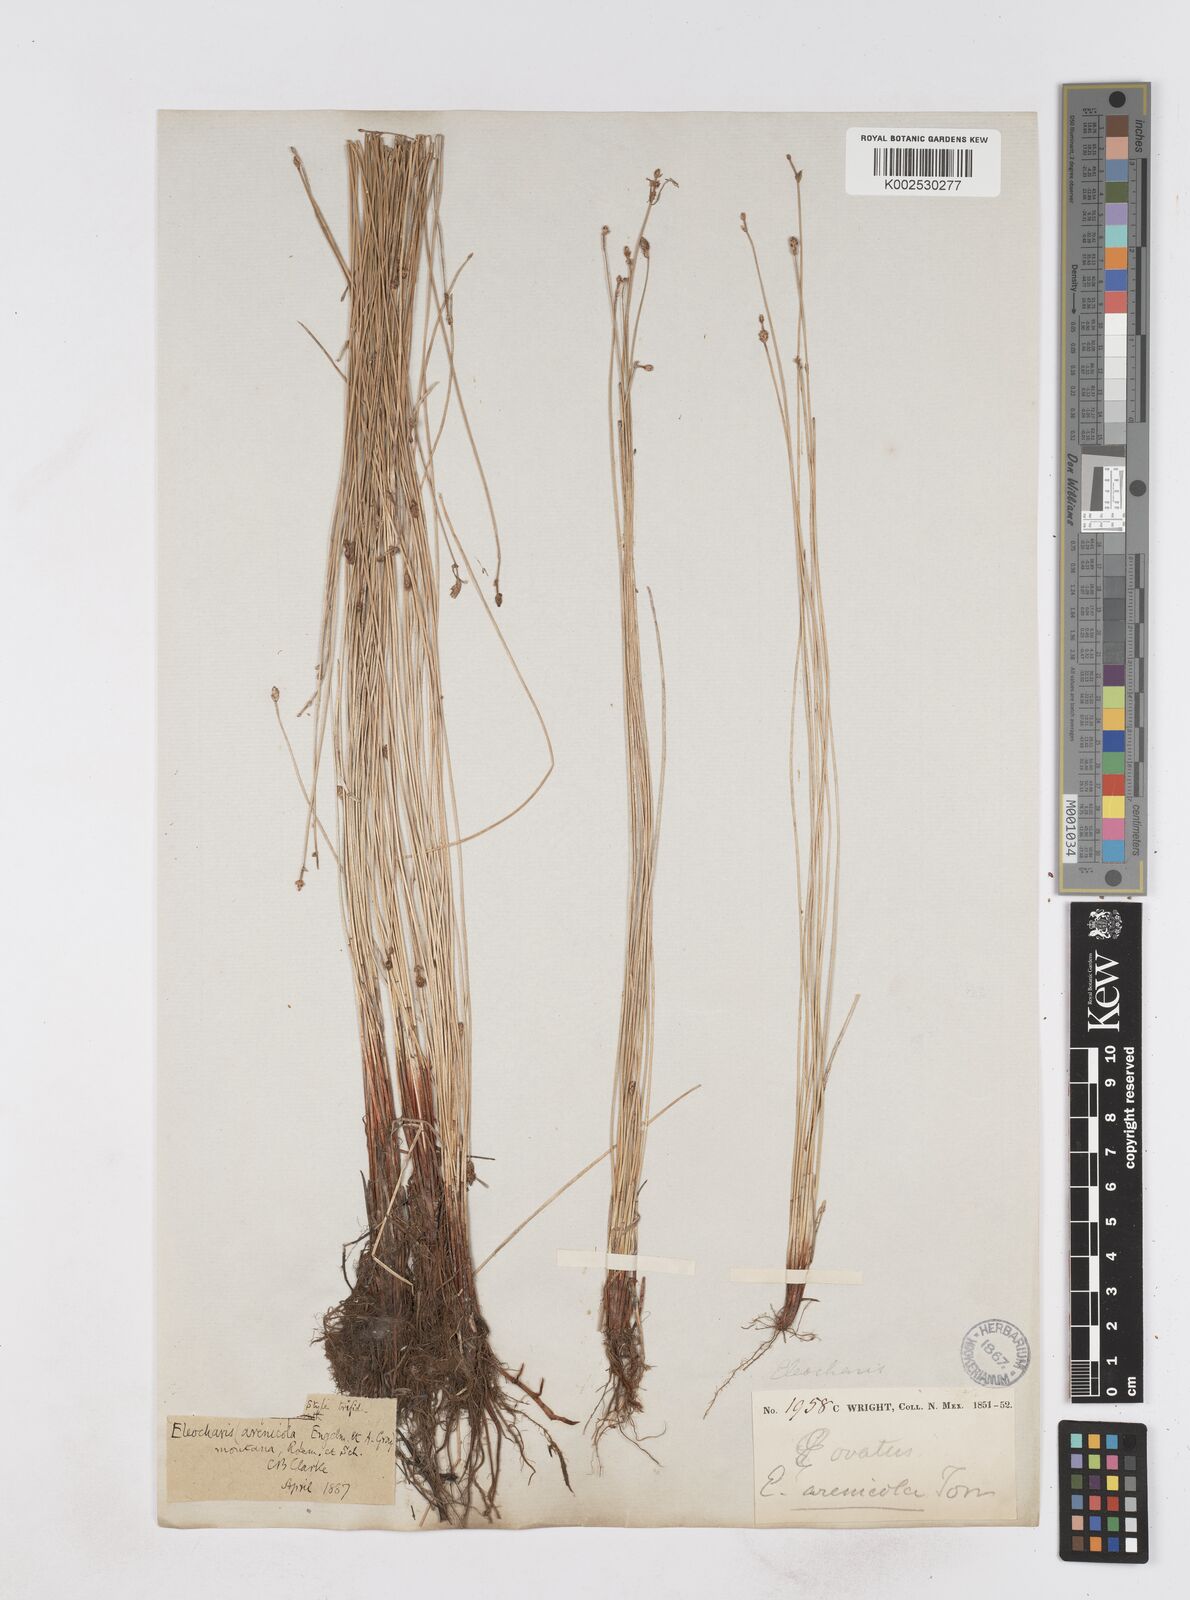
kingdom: Plantae
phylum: Tracheophyta
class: Liliopsida
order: Poales
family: Cyperaceae
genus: Eleocharis
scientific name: Eleocharis macounii
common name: Macoun's spikerush
